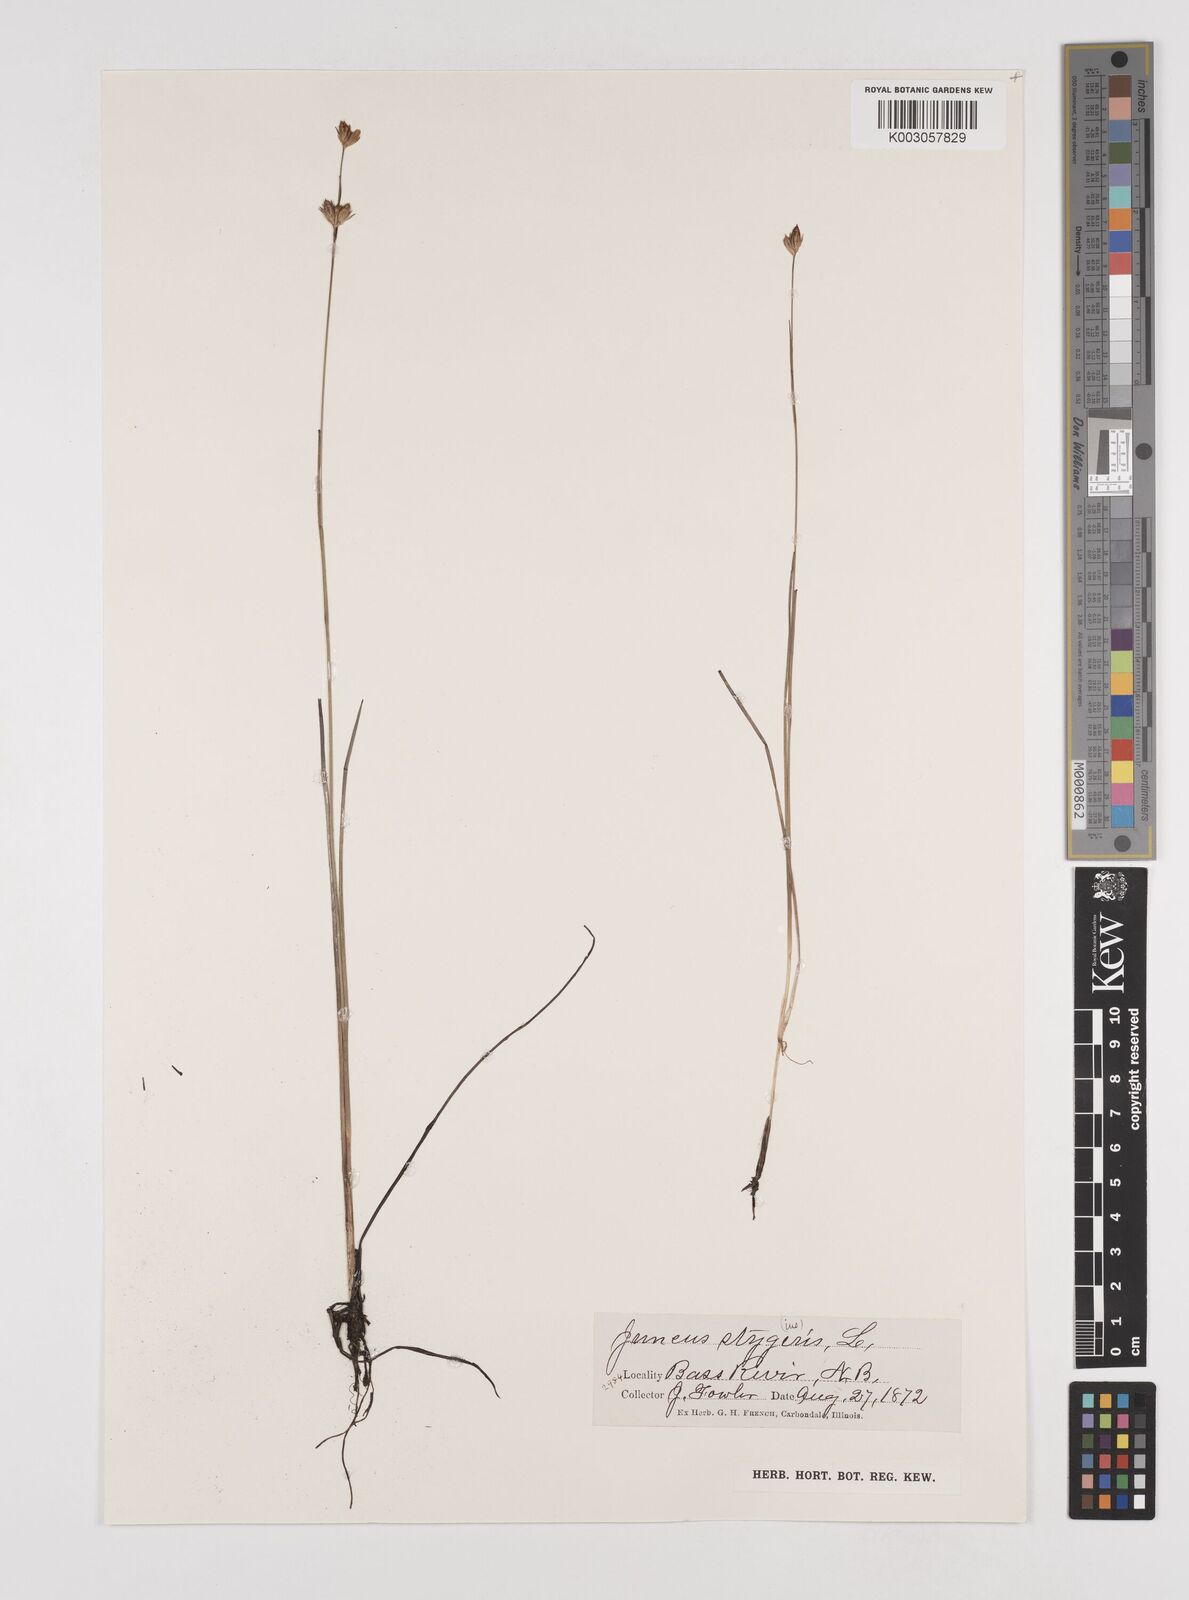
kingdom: Plantae
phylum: Tracheophyta
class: Liliopsida
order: Poales
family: Juncaceae
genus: Juncus
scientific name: Juncus stygius
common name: Bog rush
